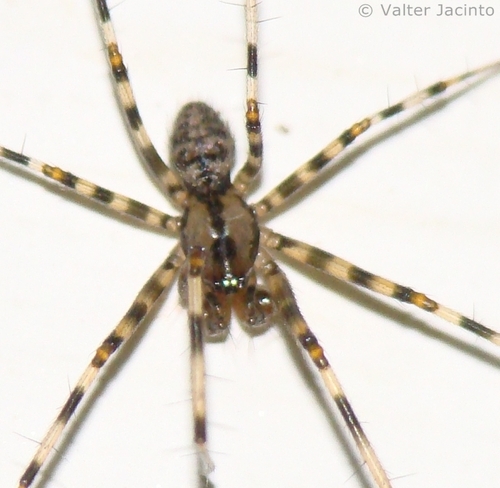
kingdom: Animalia
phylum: Arthropoda
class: Arachnida
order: Araneae
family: Linyphiidae
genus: Megalepthyphantes
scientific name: Megalepthyphantes collinus
